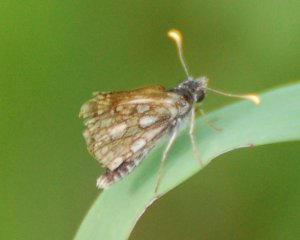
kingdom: Animalia
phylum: Arthropoda
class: Insecta
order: Lepidoptera
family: Hesperiidae
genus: Carterocephalus
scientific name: Carterocephalus palaemon
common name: Chequered Skipper
